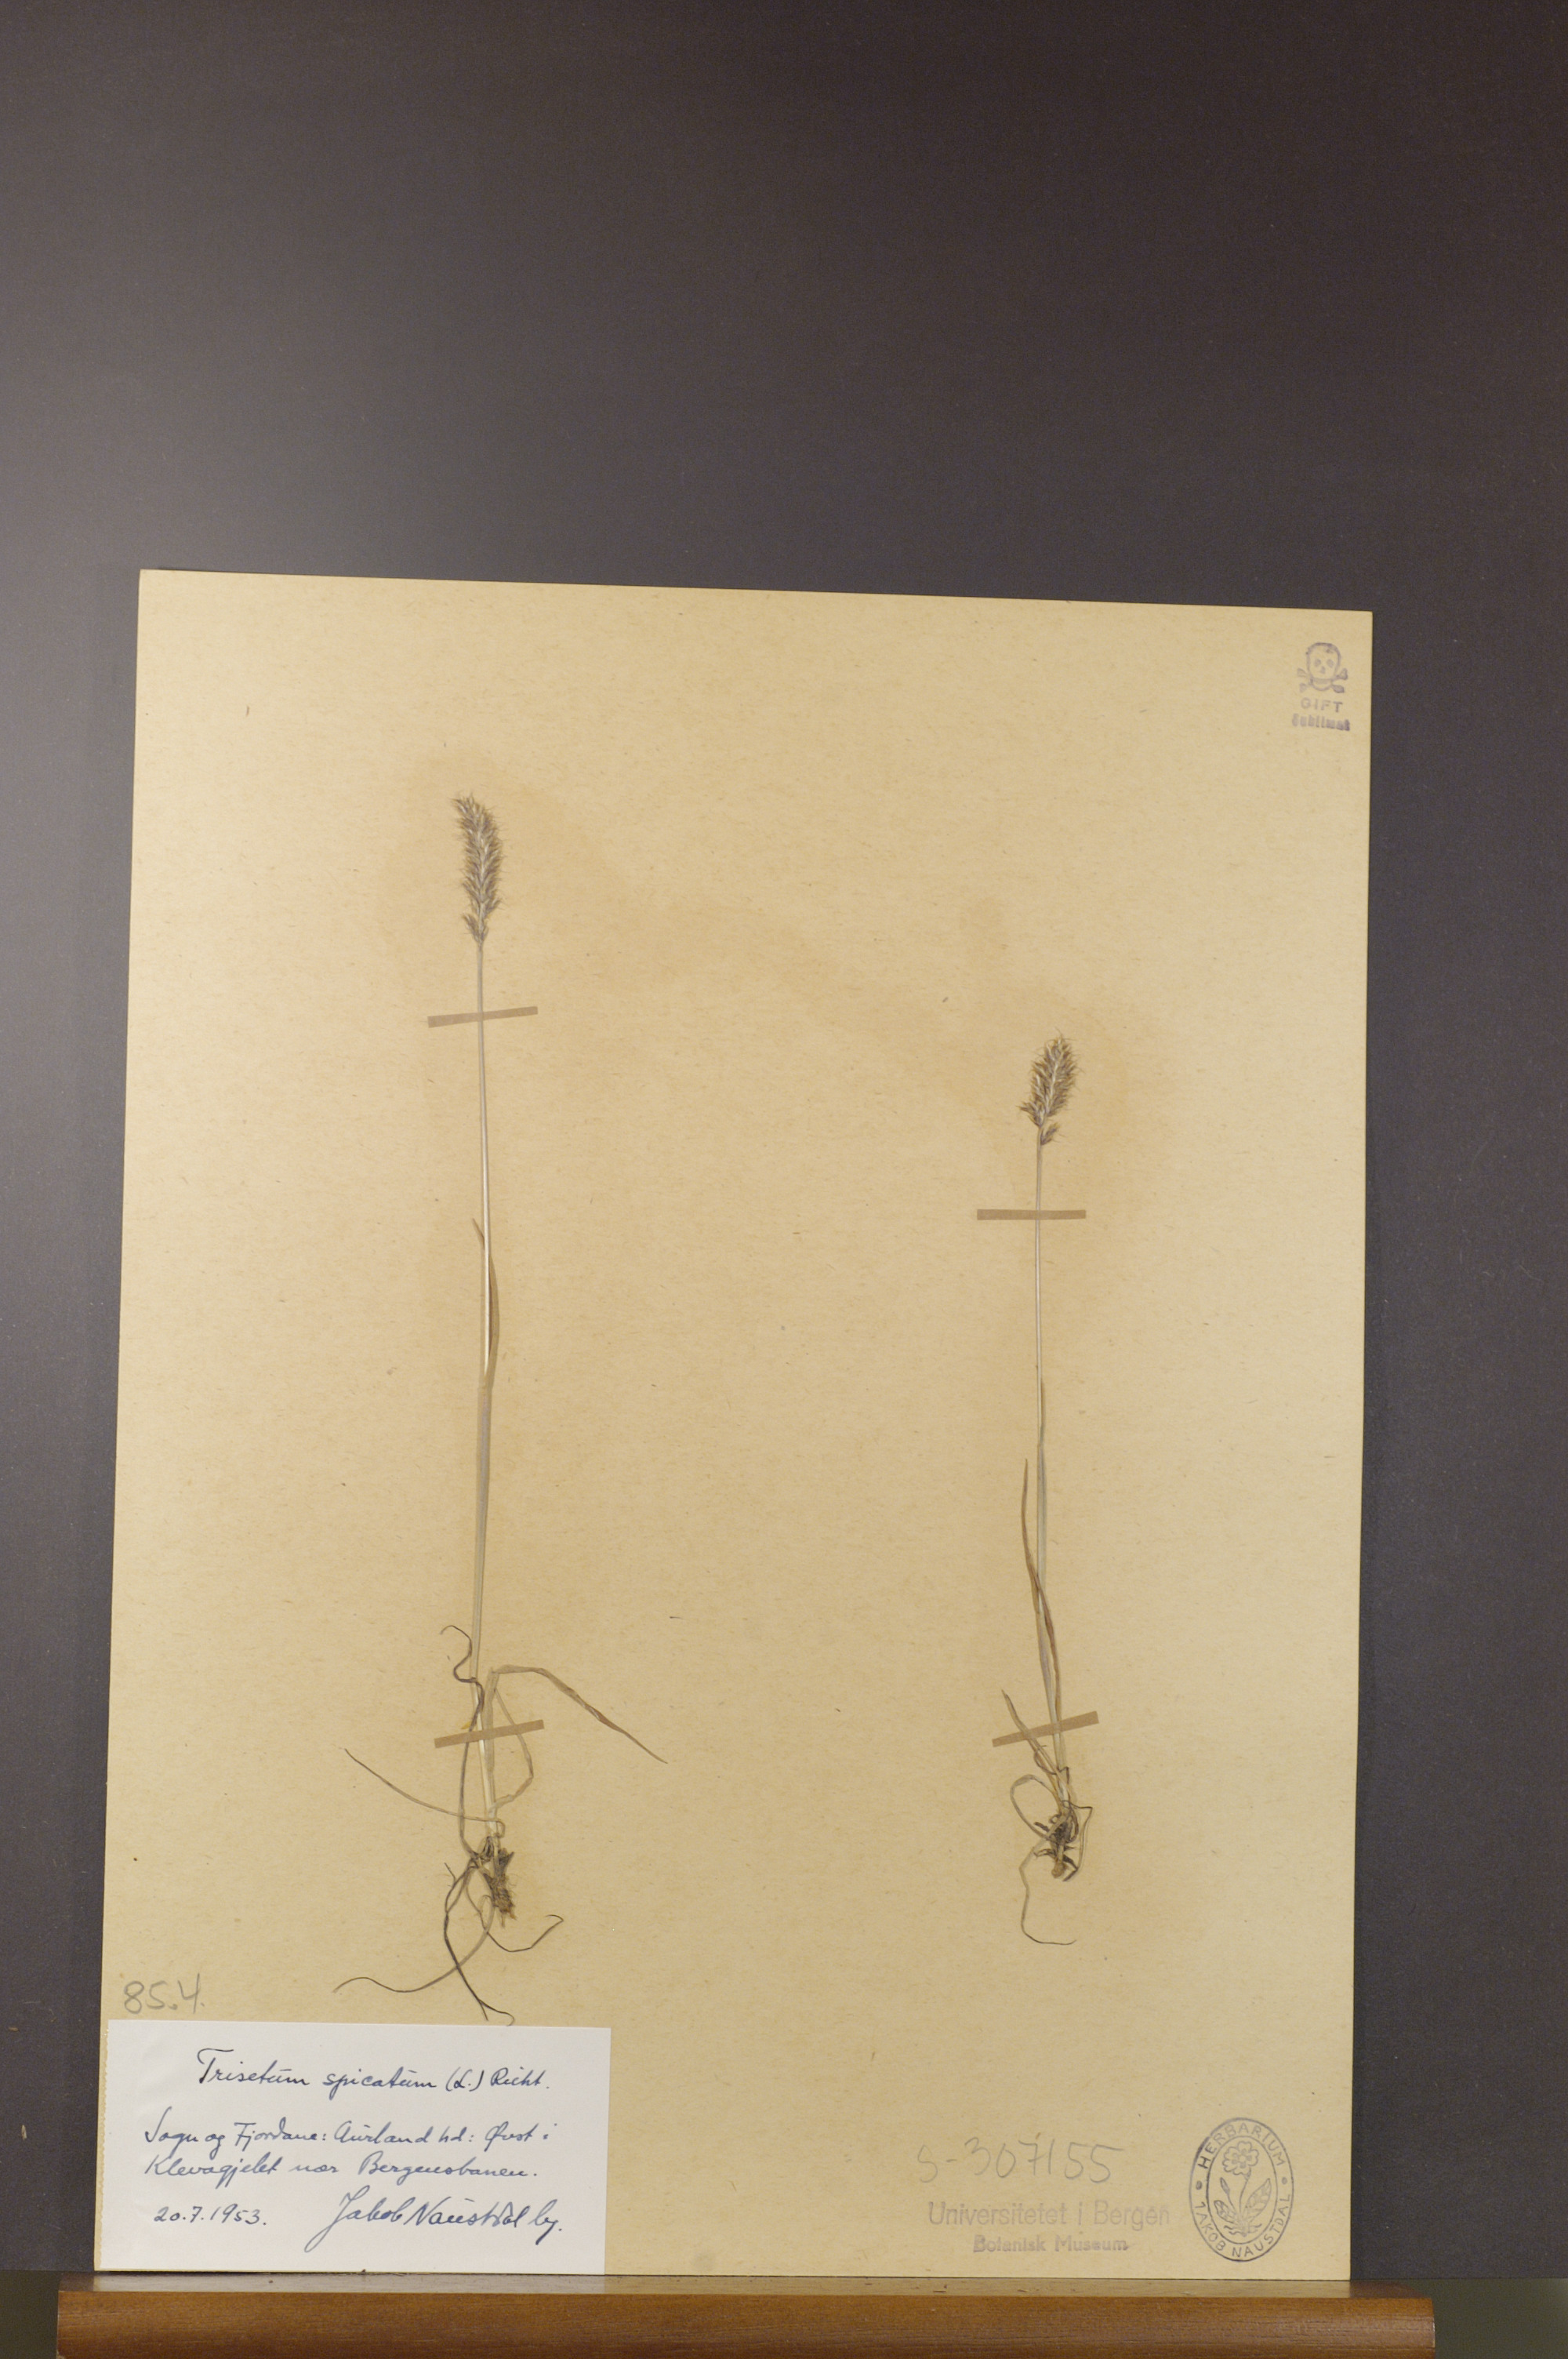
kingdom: Plantae
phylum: Tracheophyta
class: Liliopsida
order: Poales
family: Poaceae
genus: Koeleria
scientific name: Koeleria spicata
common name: Mountain trisetum
